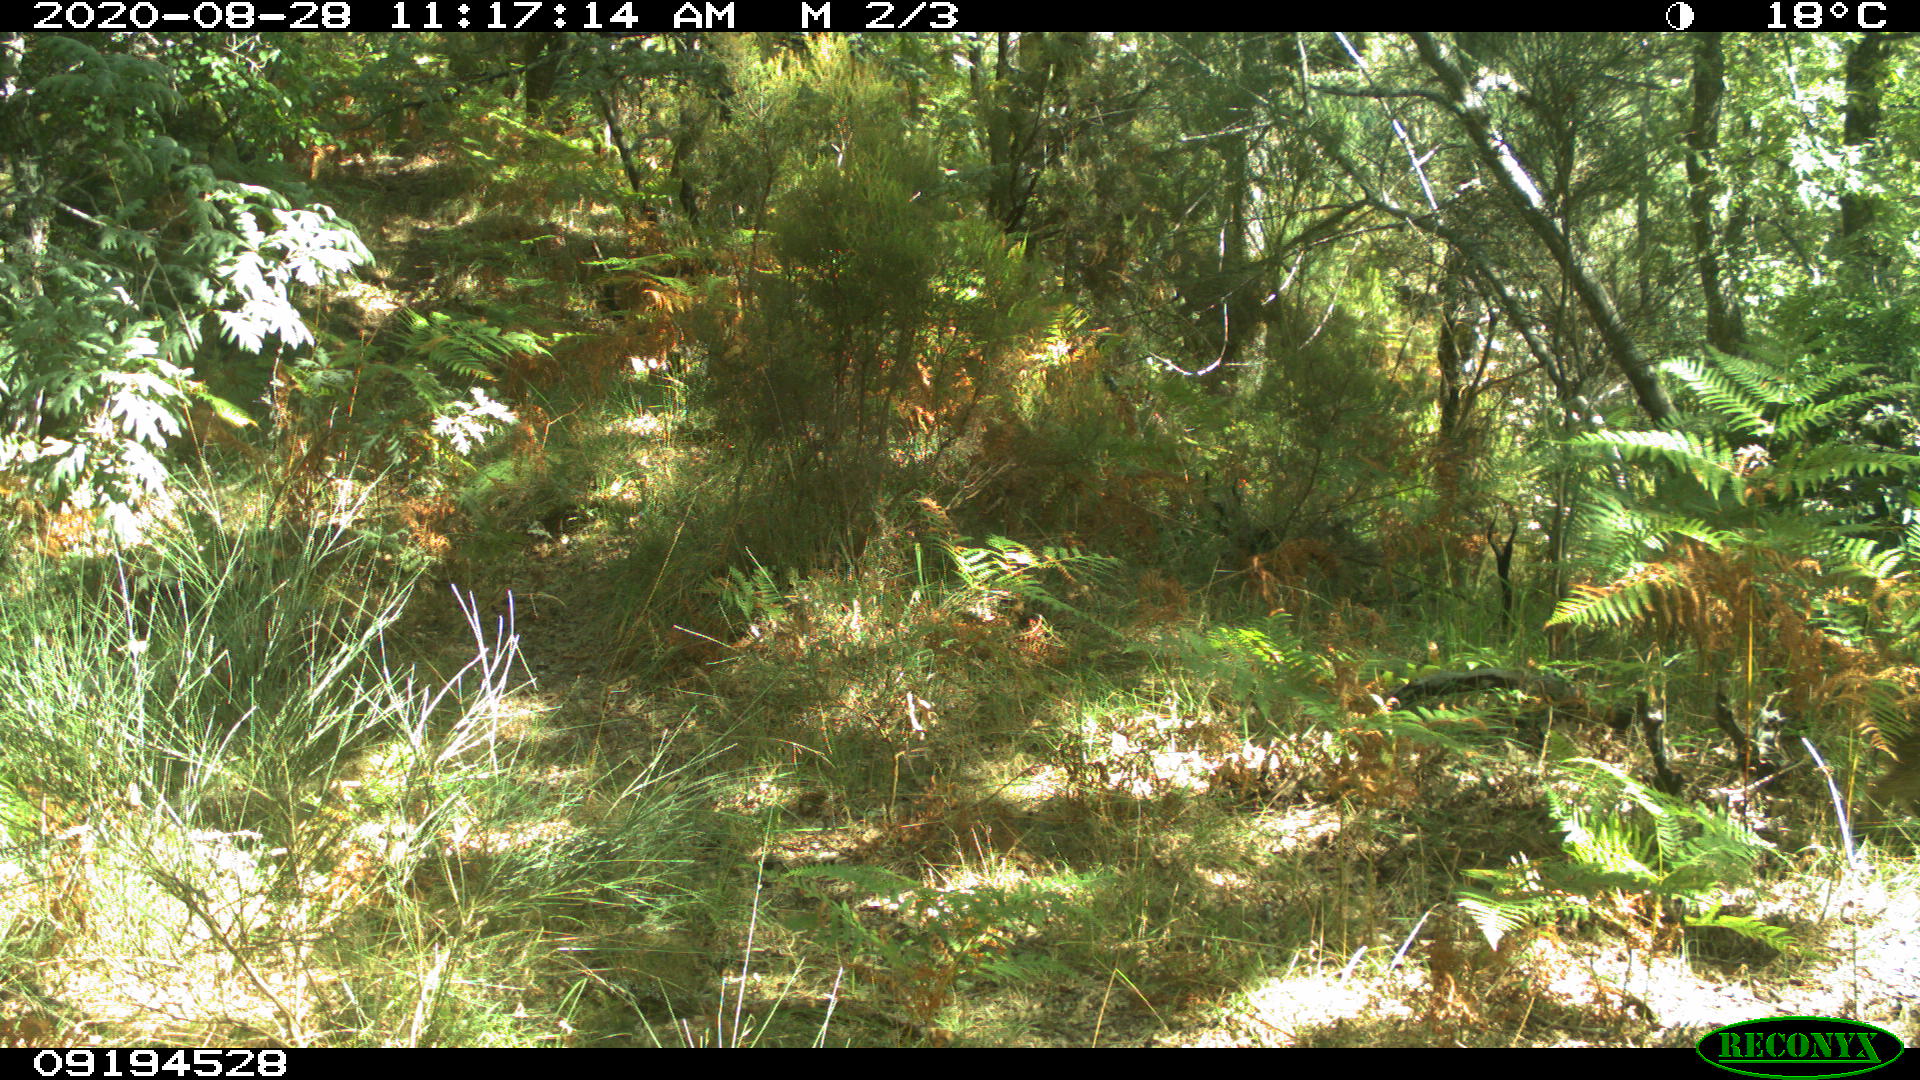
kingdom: Animalia
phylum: Chordata
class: Mammalia
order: Artiodactyla
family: Suidae
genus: Sus
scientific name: Sus scrofa
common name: Wild boar
